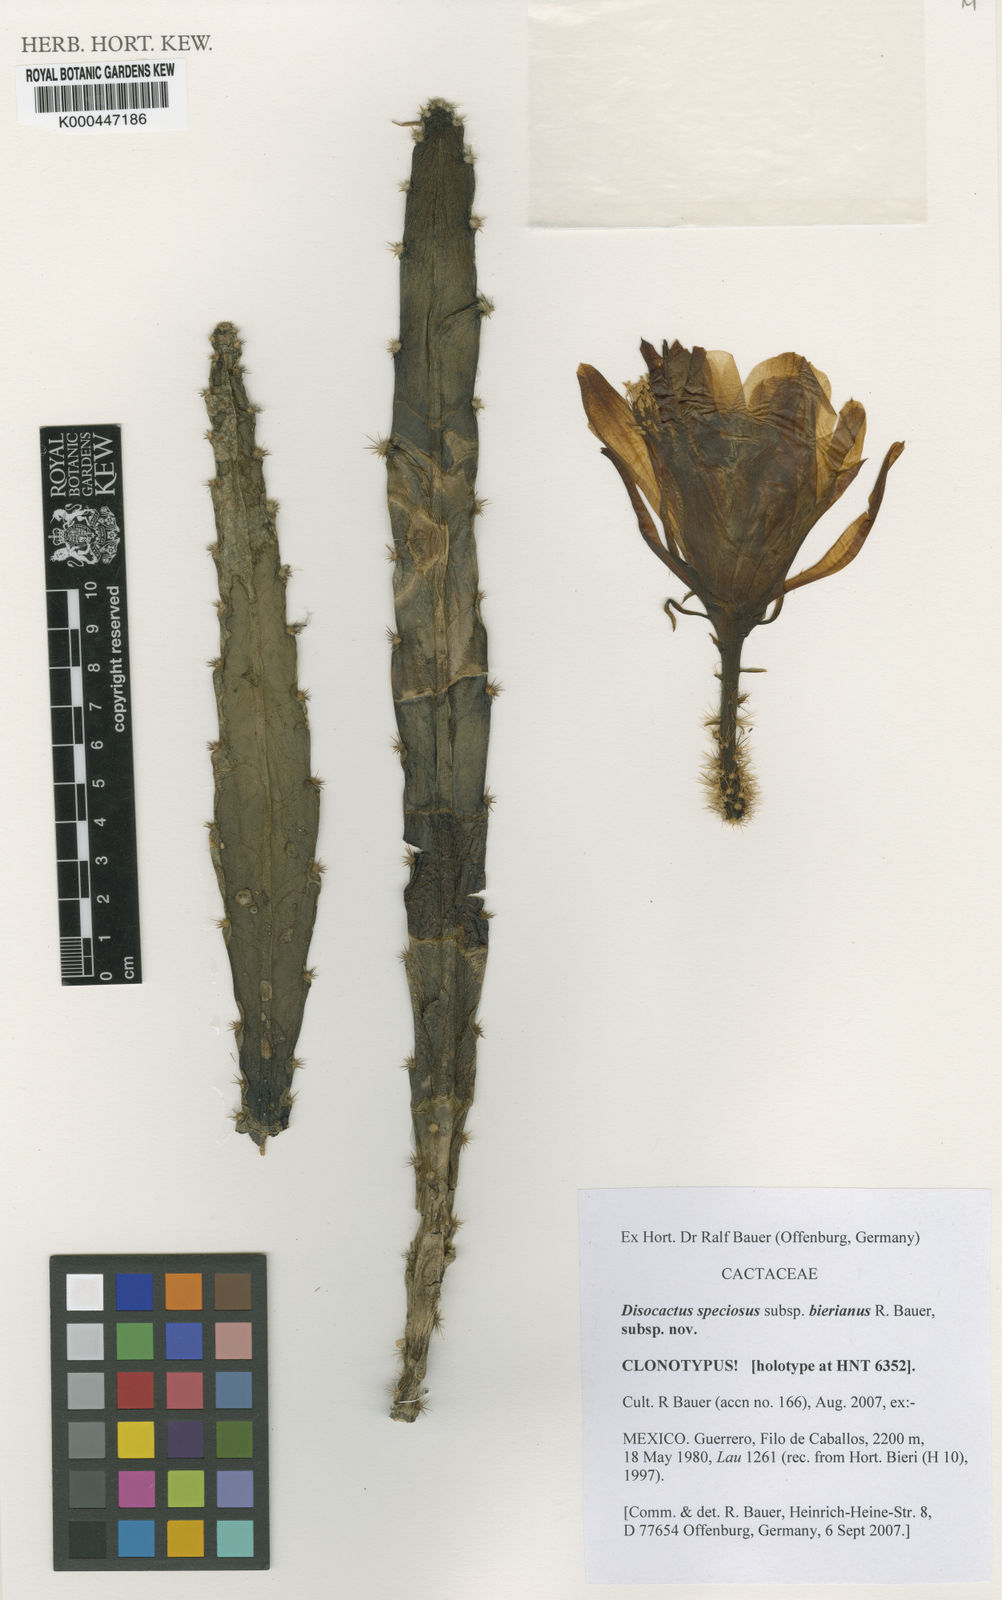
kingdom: Plantae
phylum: Tracheophyta
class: Magnoliopsida
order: Caryophyllales
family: Cactaceae
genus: Disocactus
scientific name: Disocactus
